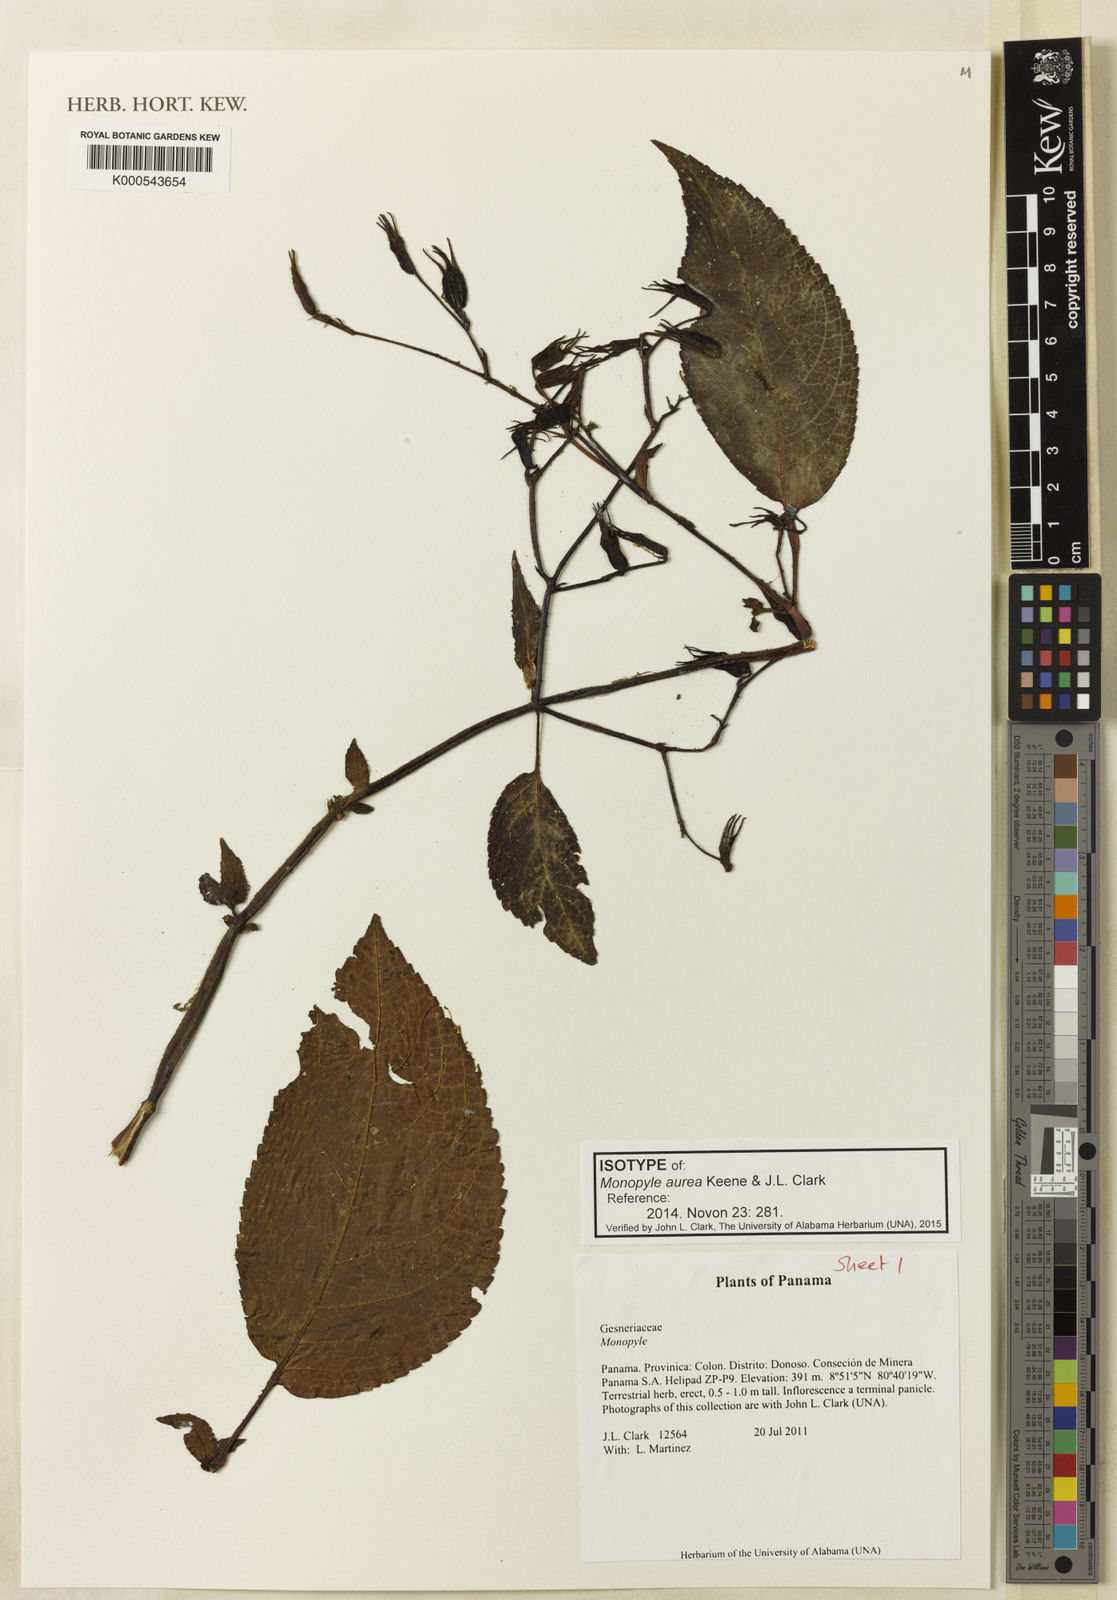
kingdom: Plantae
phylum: Tracheophyta
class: Magnoliopsida
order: Lamiales
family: Gesneriaceae
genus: Monopyle
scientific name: Monopyle aurea
